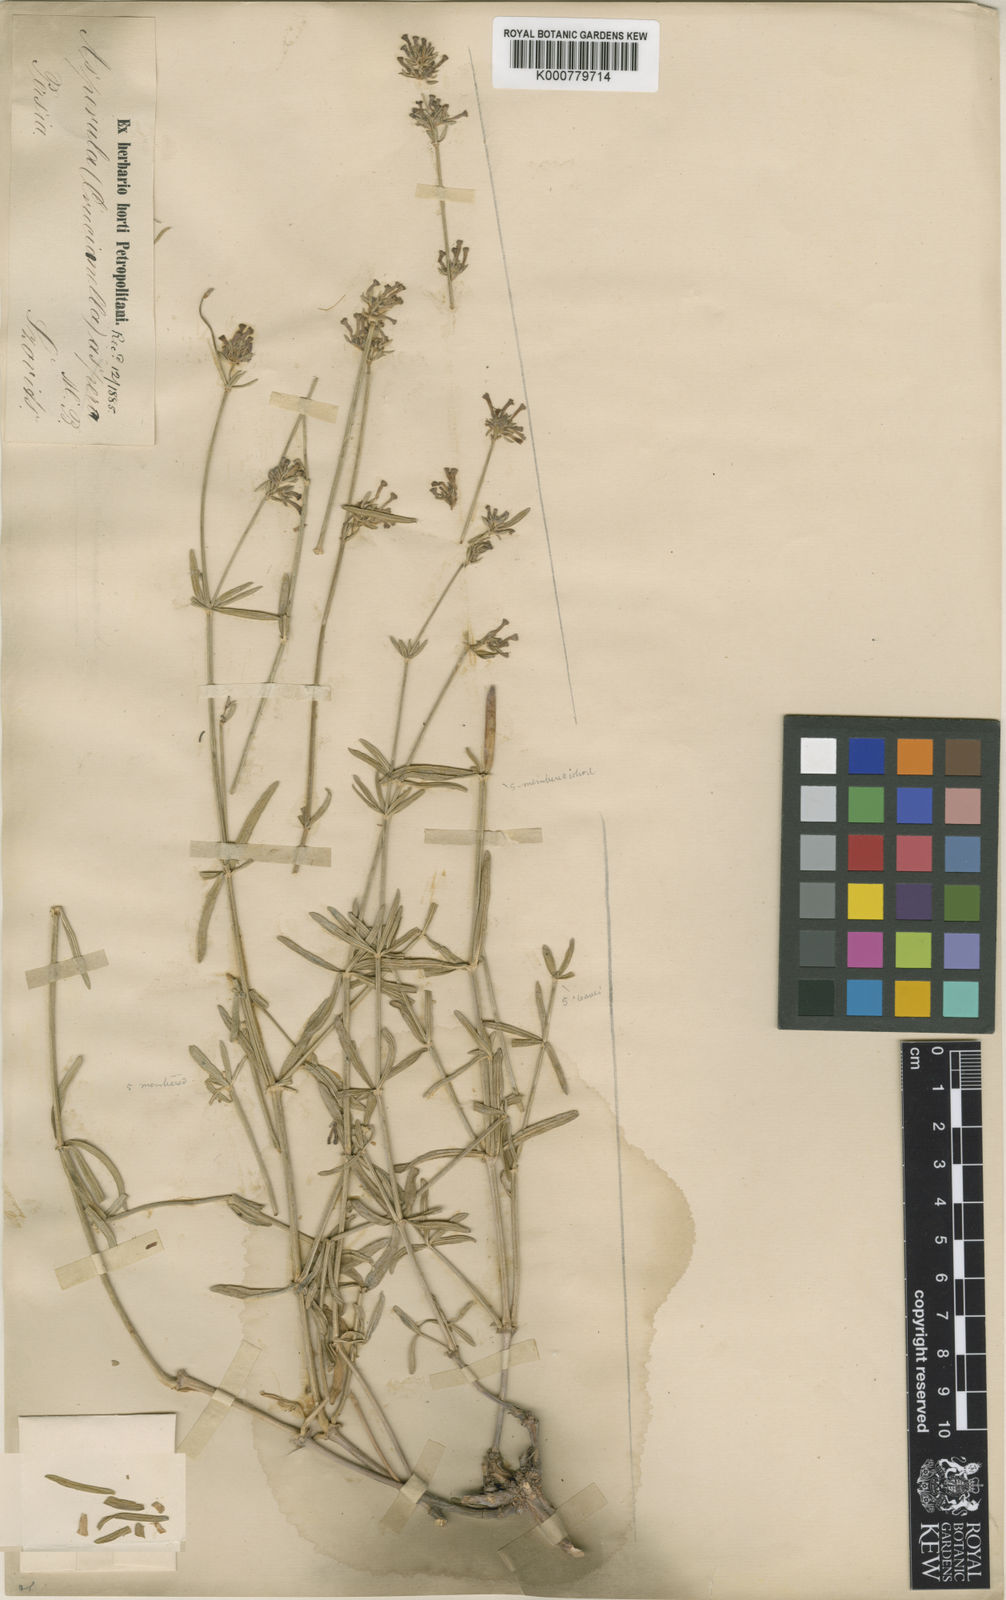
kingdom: Plantae
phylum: Tracheophyta
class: Magnoliopsida
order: Gentianales
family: Rubiaceae
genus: Asperula
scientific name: Asperula
